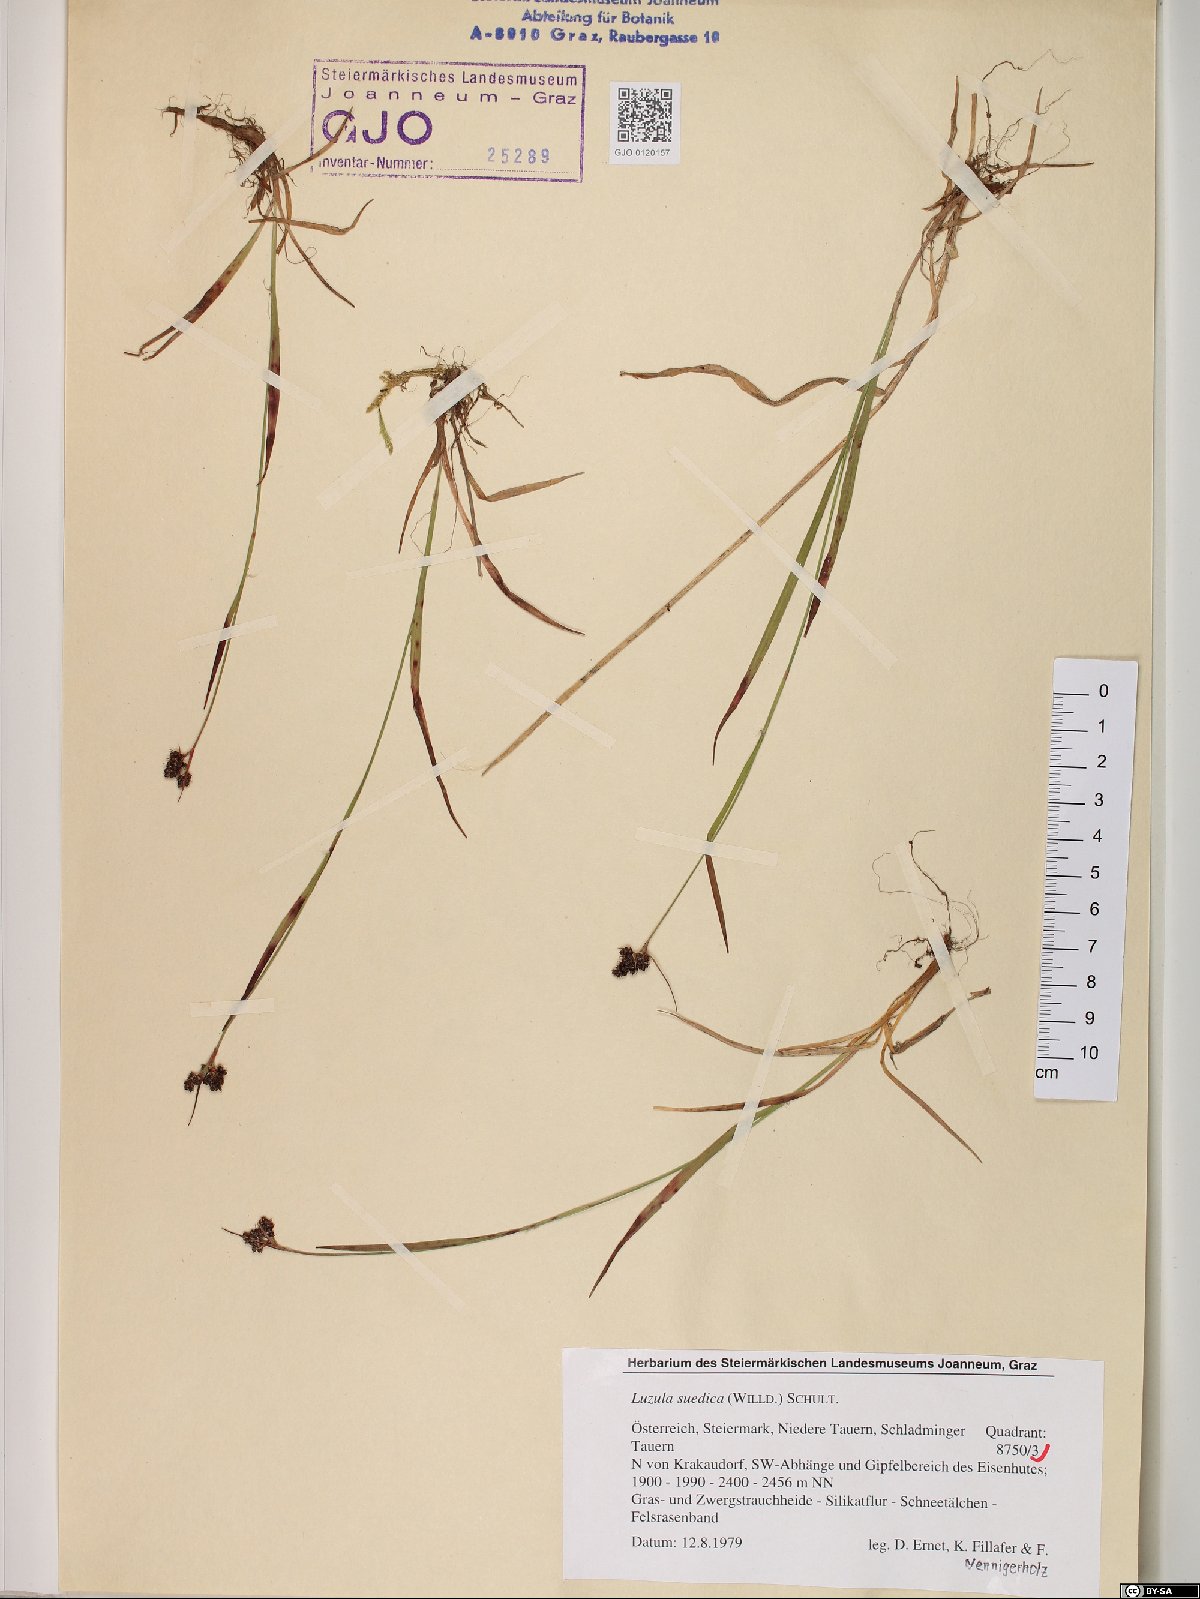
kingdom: Plantae
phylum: Tracheophyta
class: Liliopsida
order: Poales
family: Juncaceae
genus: Luzula
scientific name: Luzula sudetica
